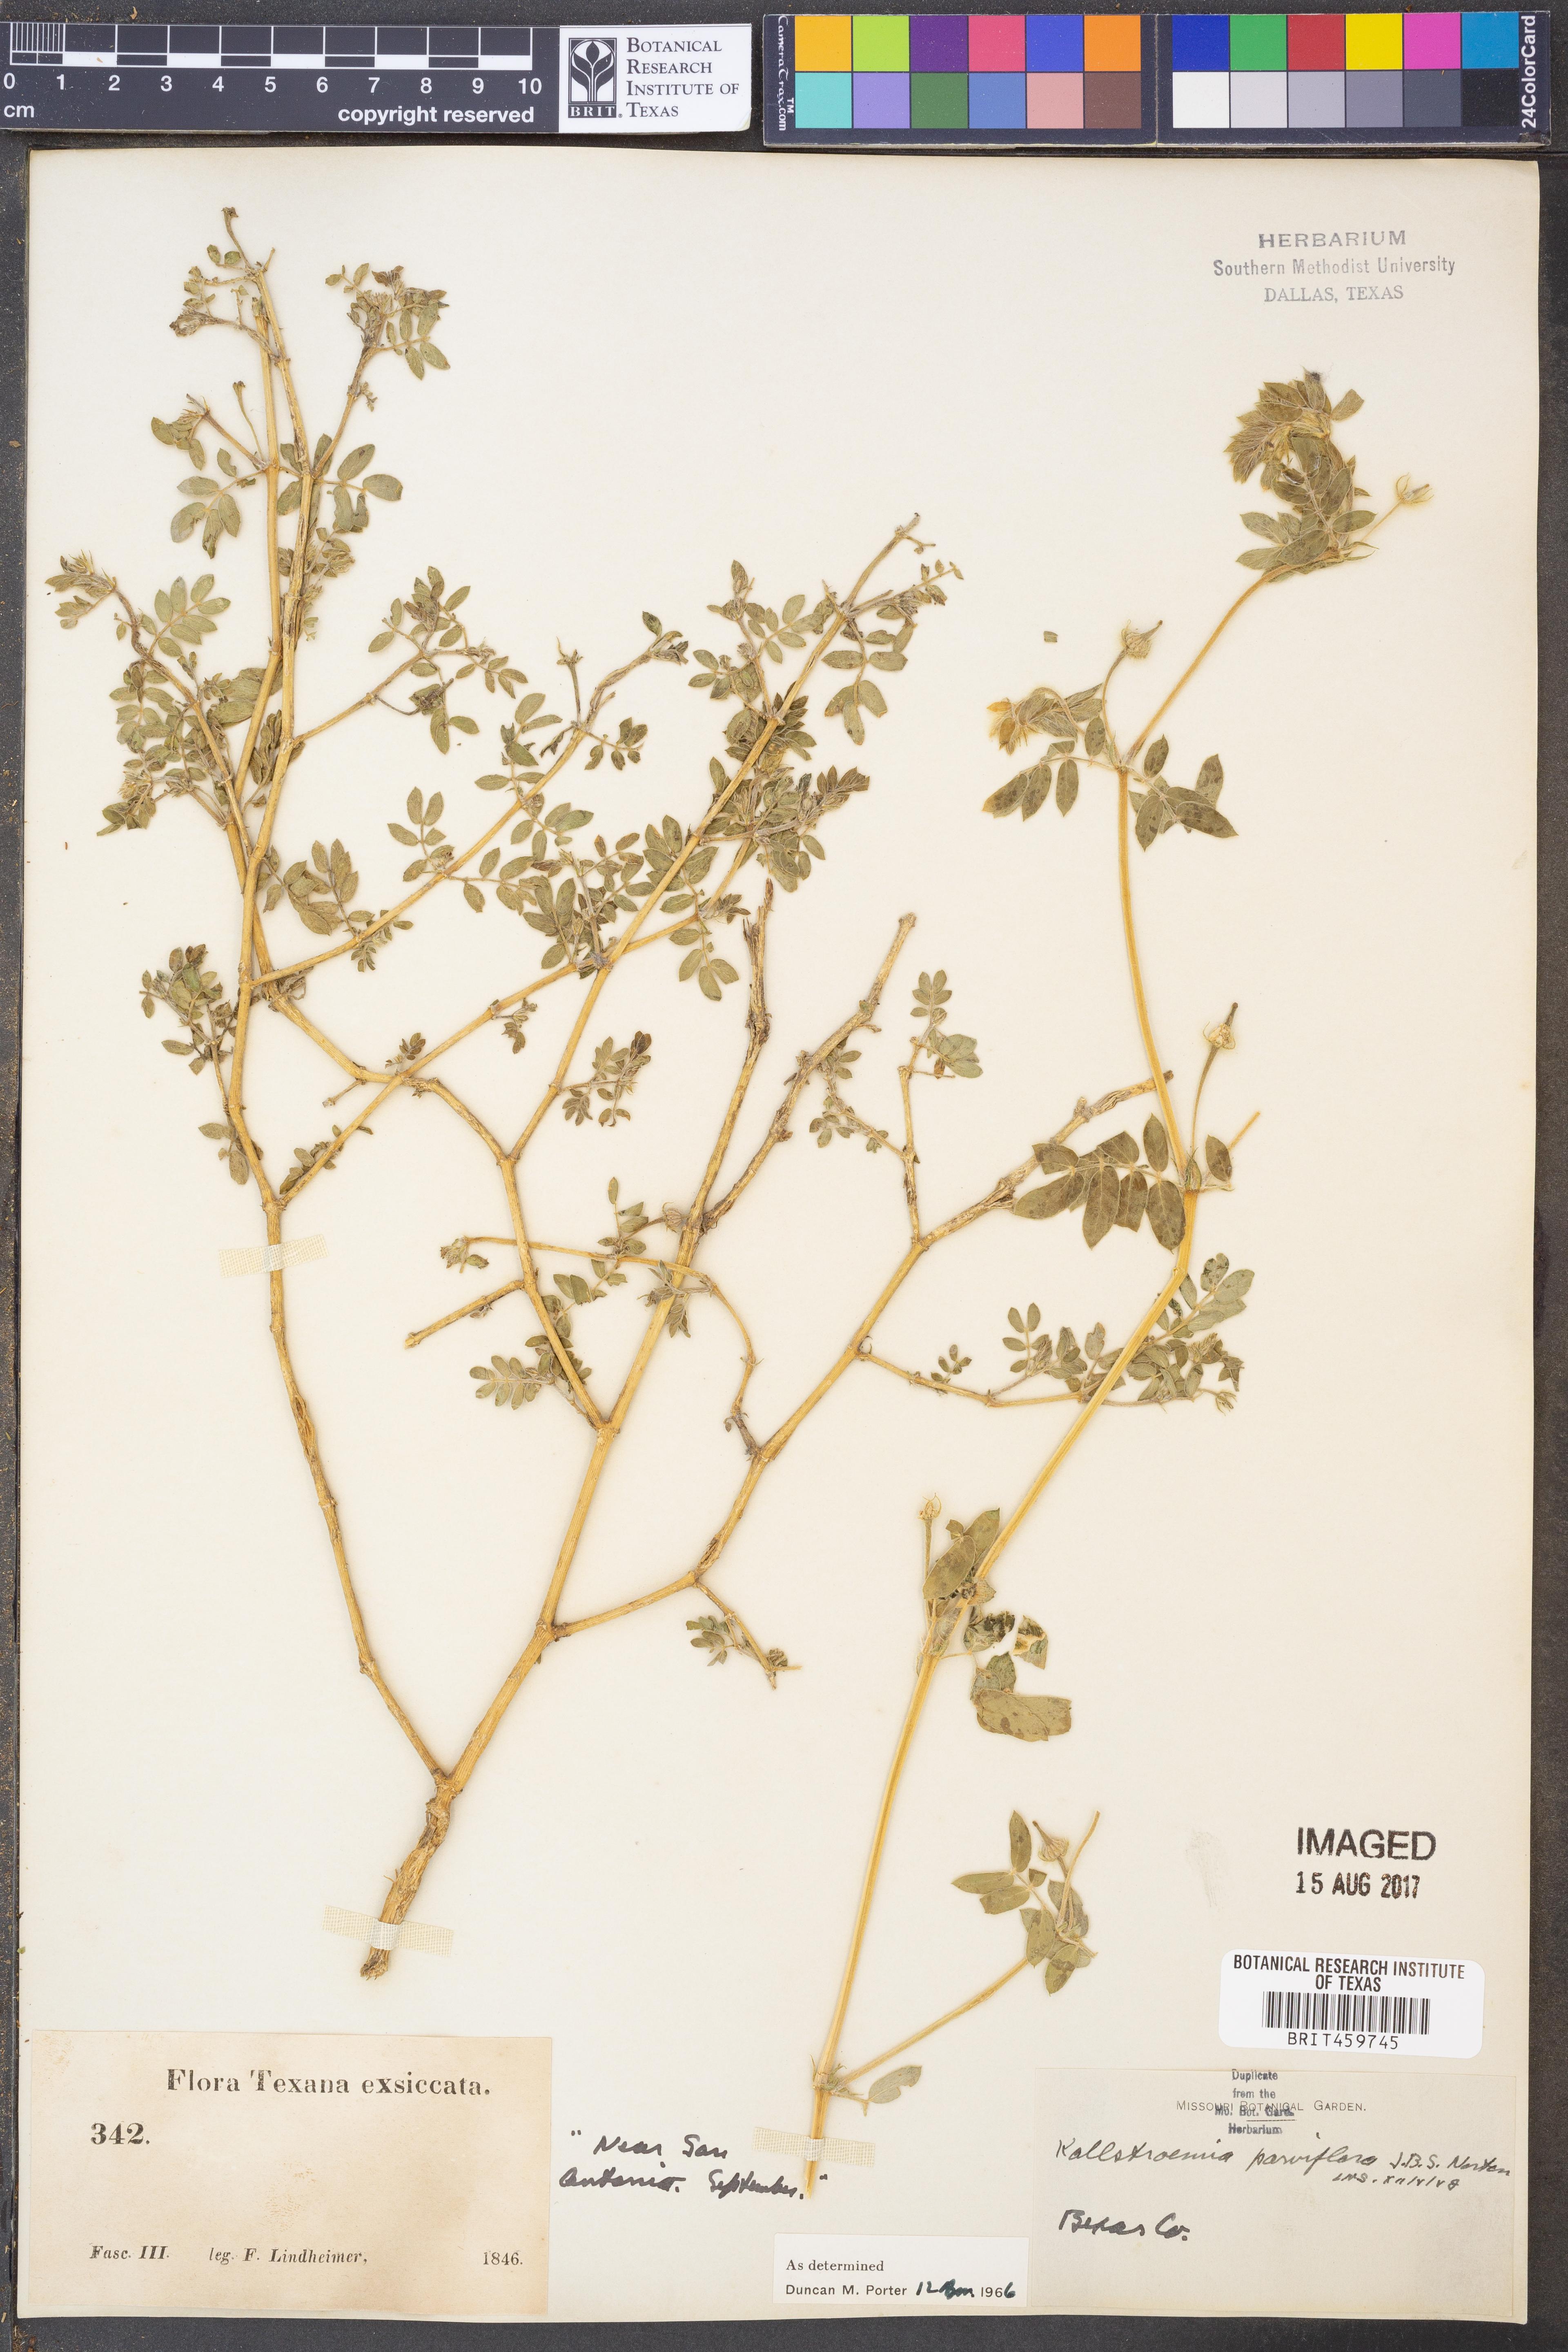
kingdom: Plantae
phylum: Tracheophyta
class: Magnoliopsida
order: Zygophyllales
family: Zygophyllaceae
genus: Kallstroemia
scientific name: Kallstroemia parviflora
